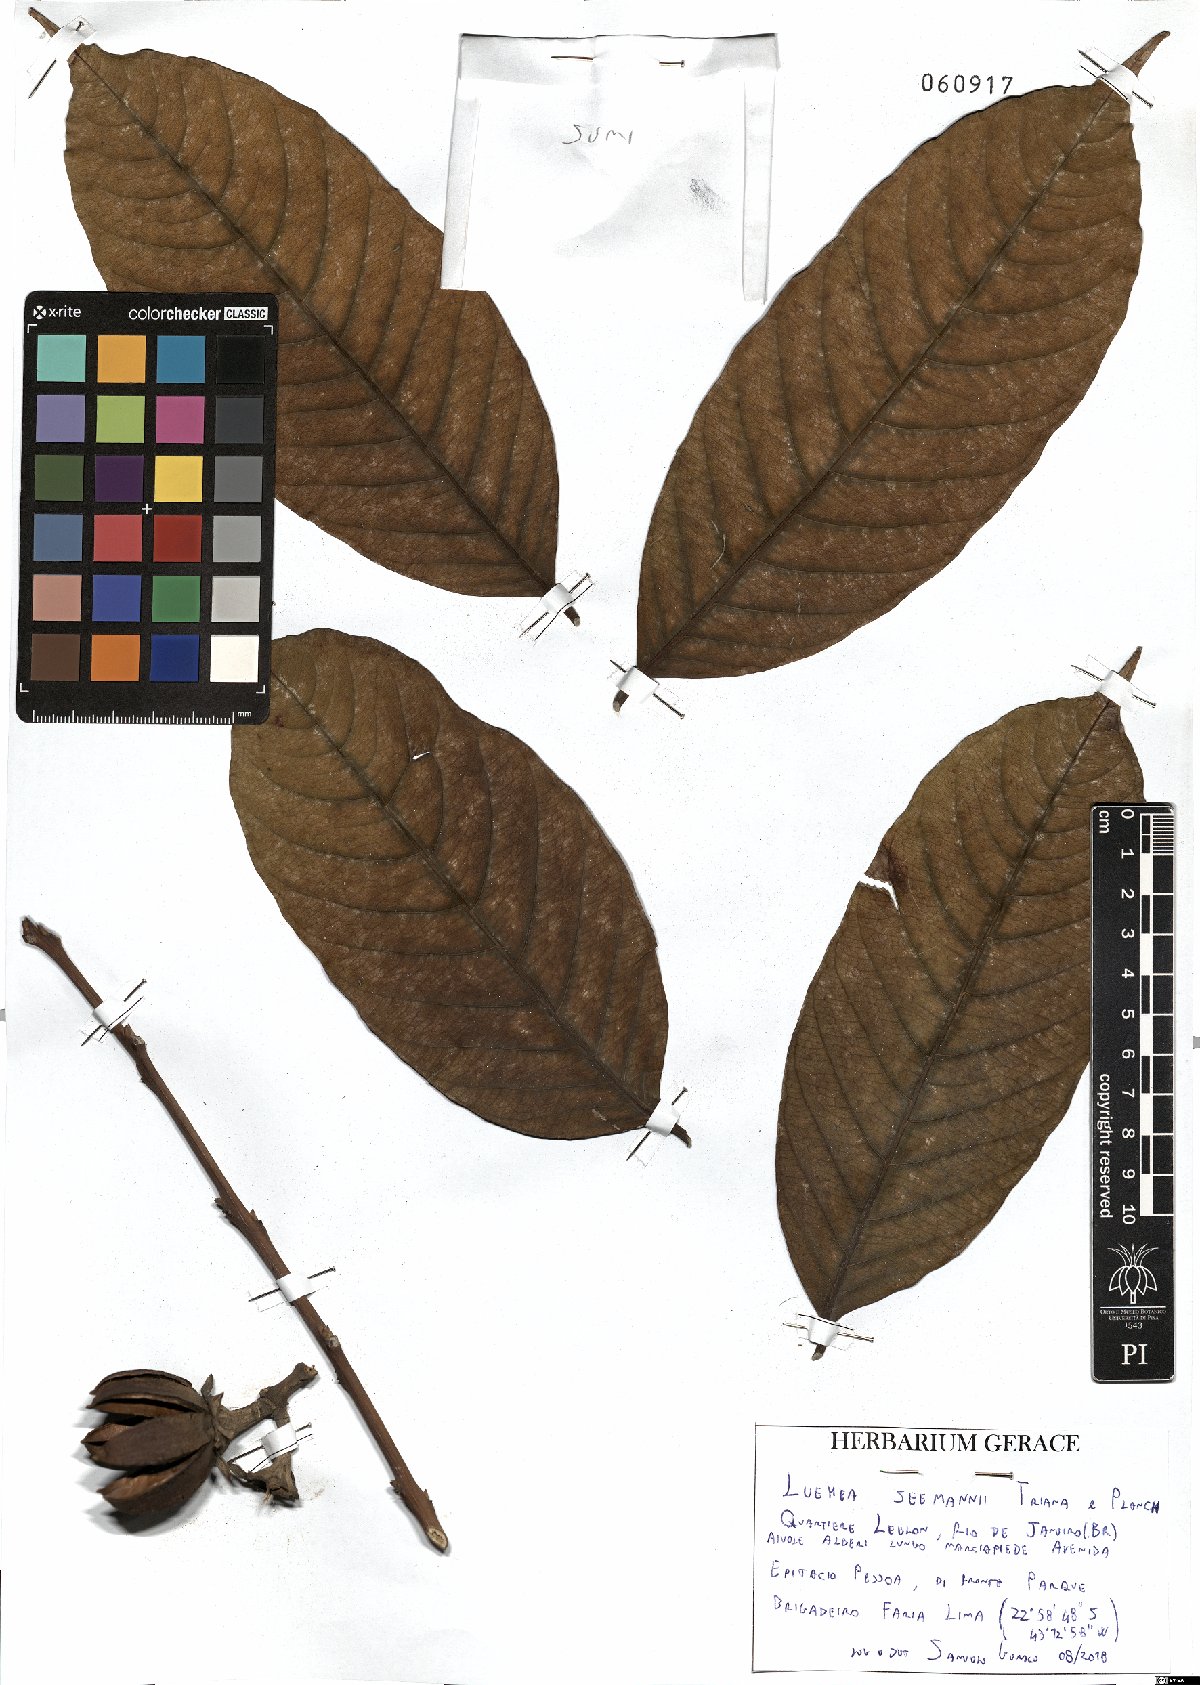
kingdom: Plantae
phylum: Tracheophyta
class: Magnoliopsida
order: Malvales
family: Malvaceae
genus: Luehea
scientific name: Luehea seemannii
